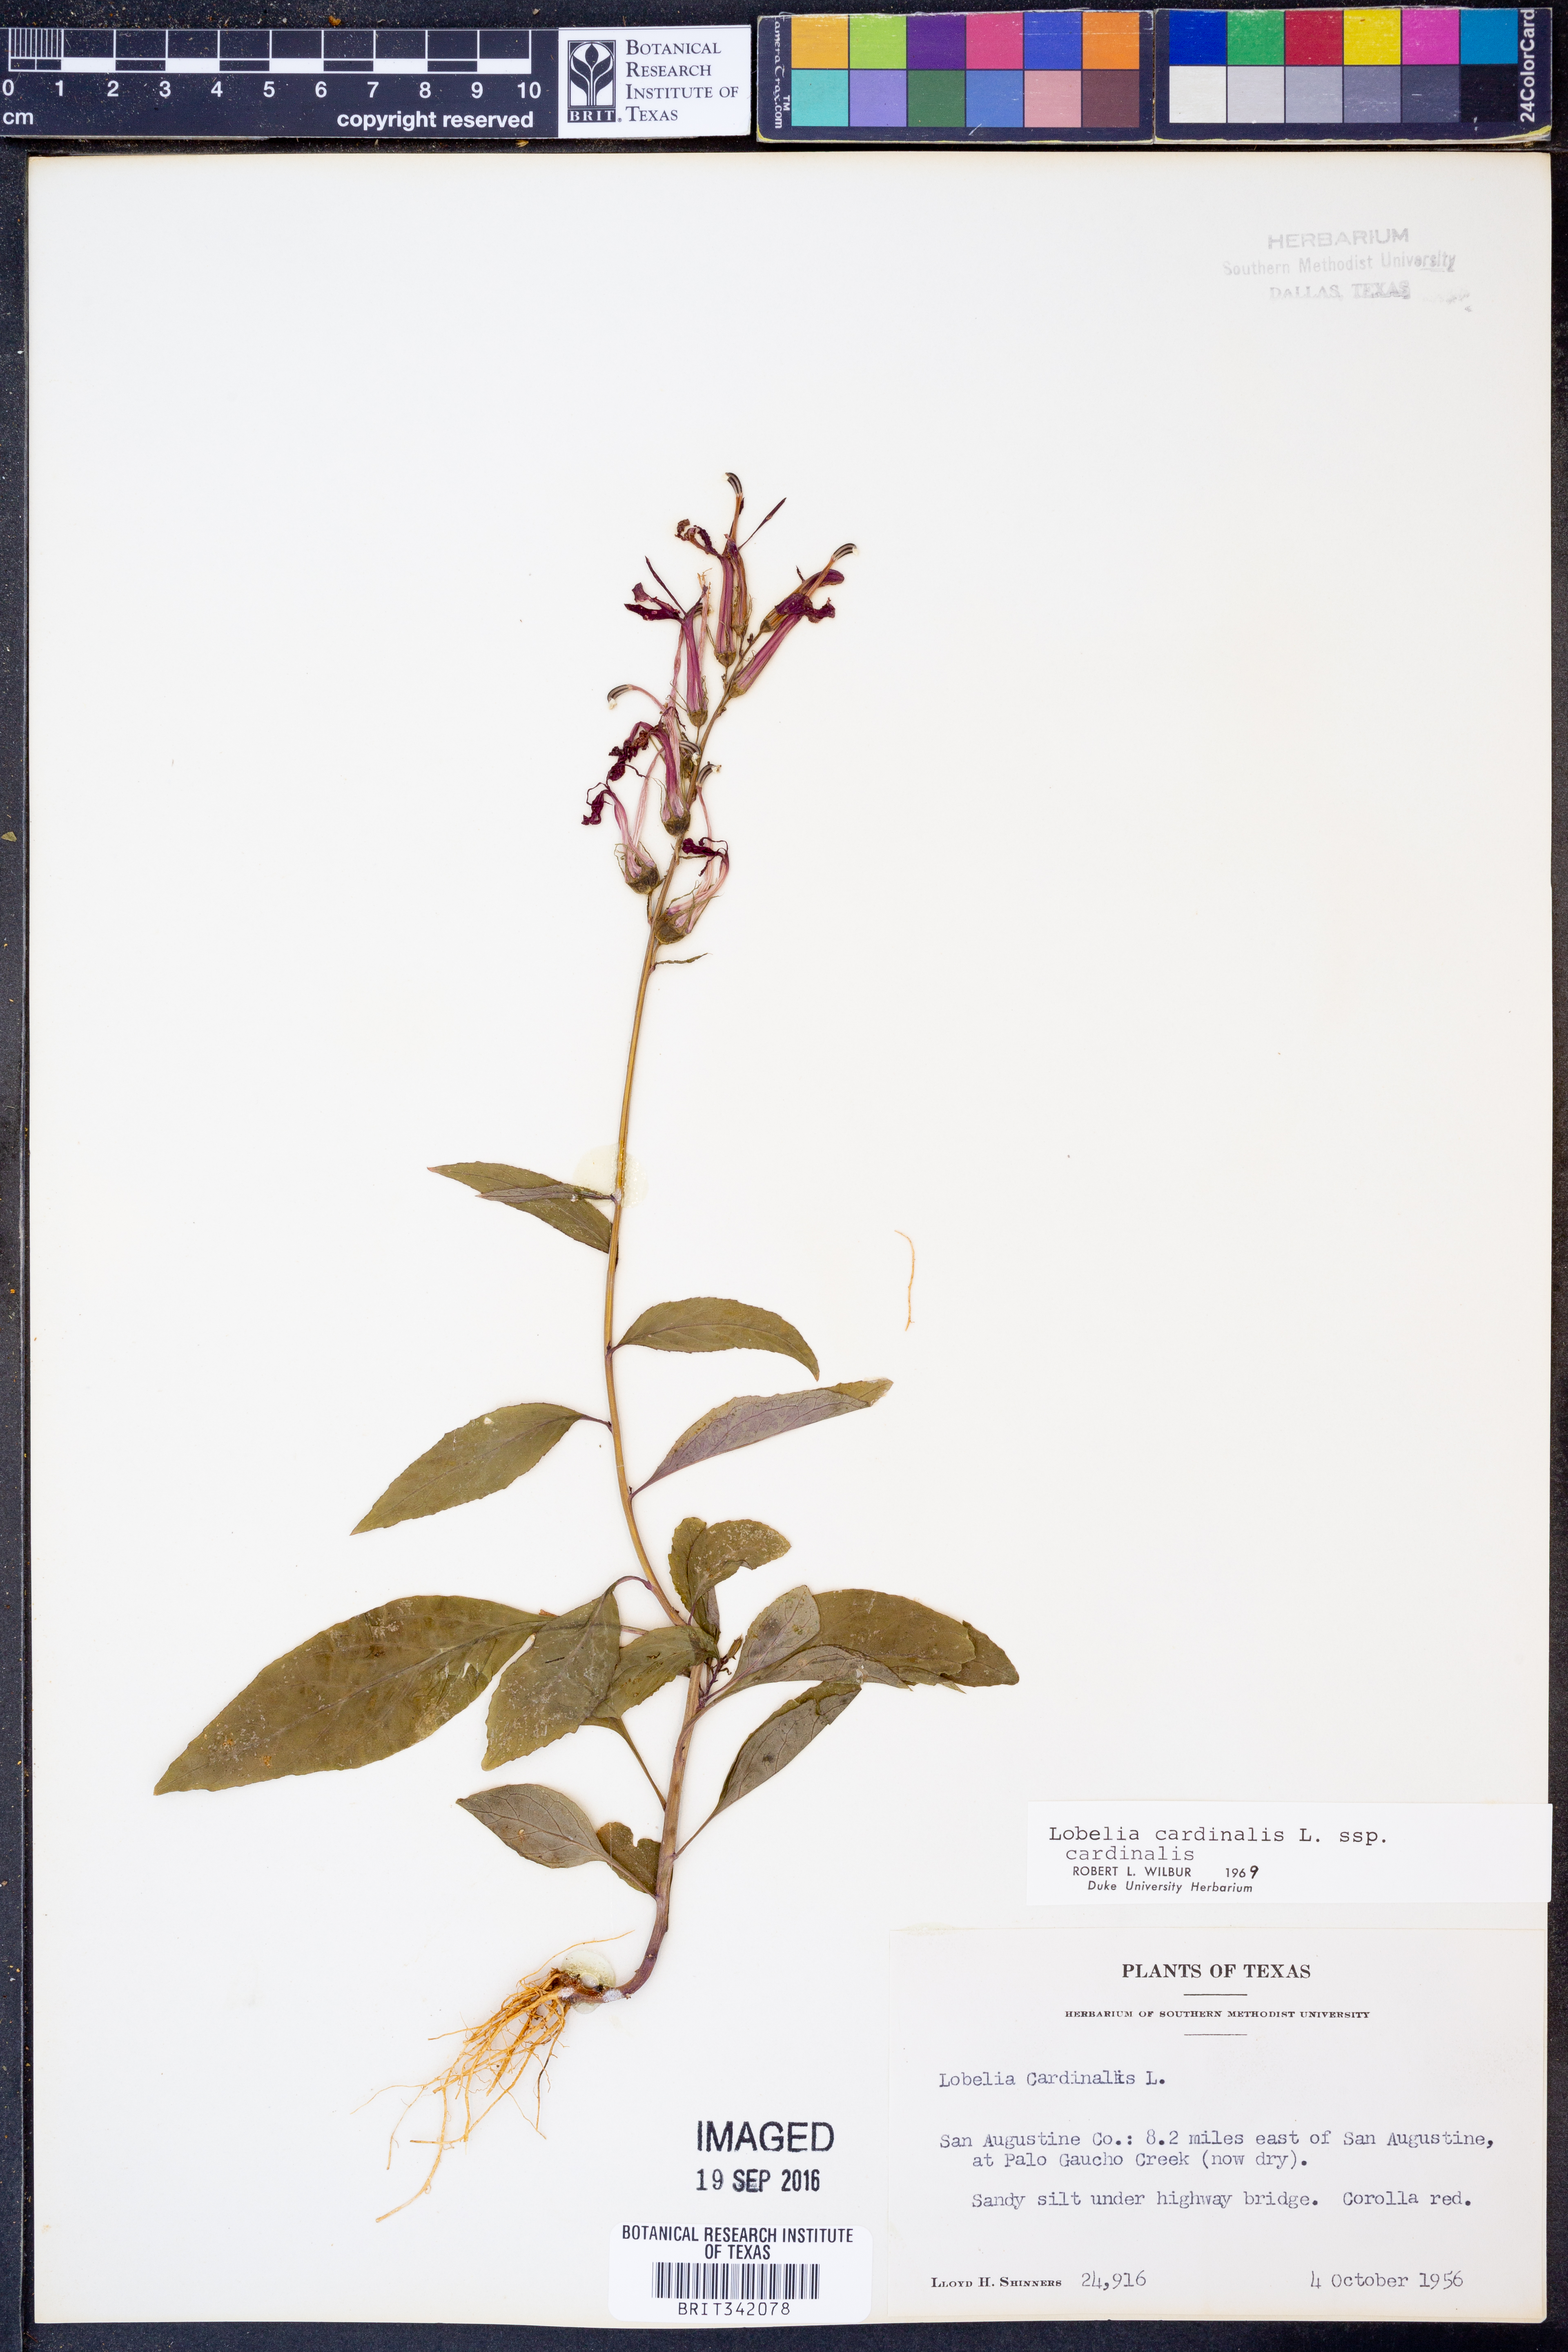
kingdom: Plantae
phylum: Tracheophyta
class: Magnoliopsida
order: Asterales
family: Campanulaceae
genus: Lobelia
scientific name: Lobelia cardinalis
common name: Cardinal flower
